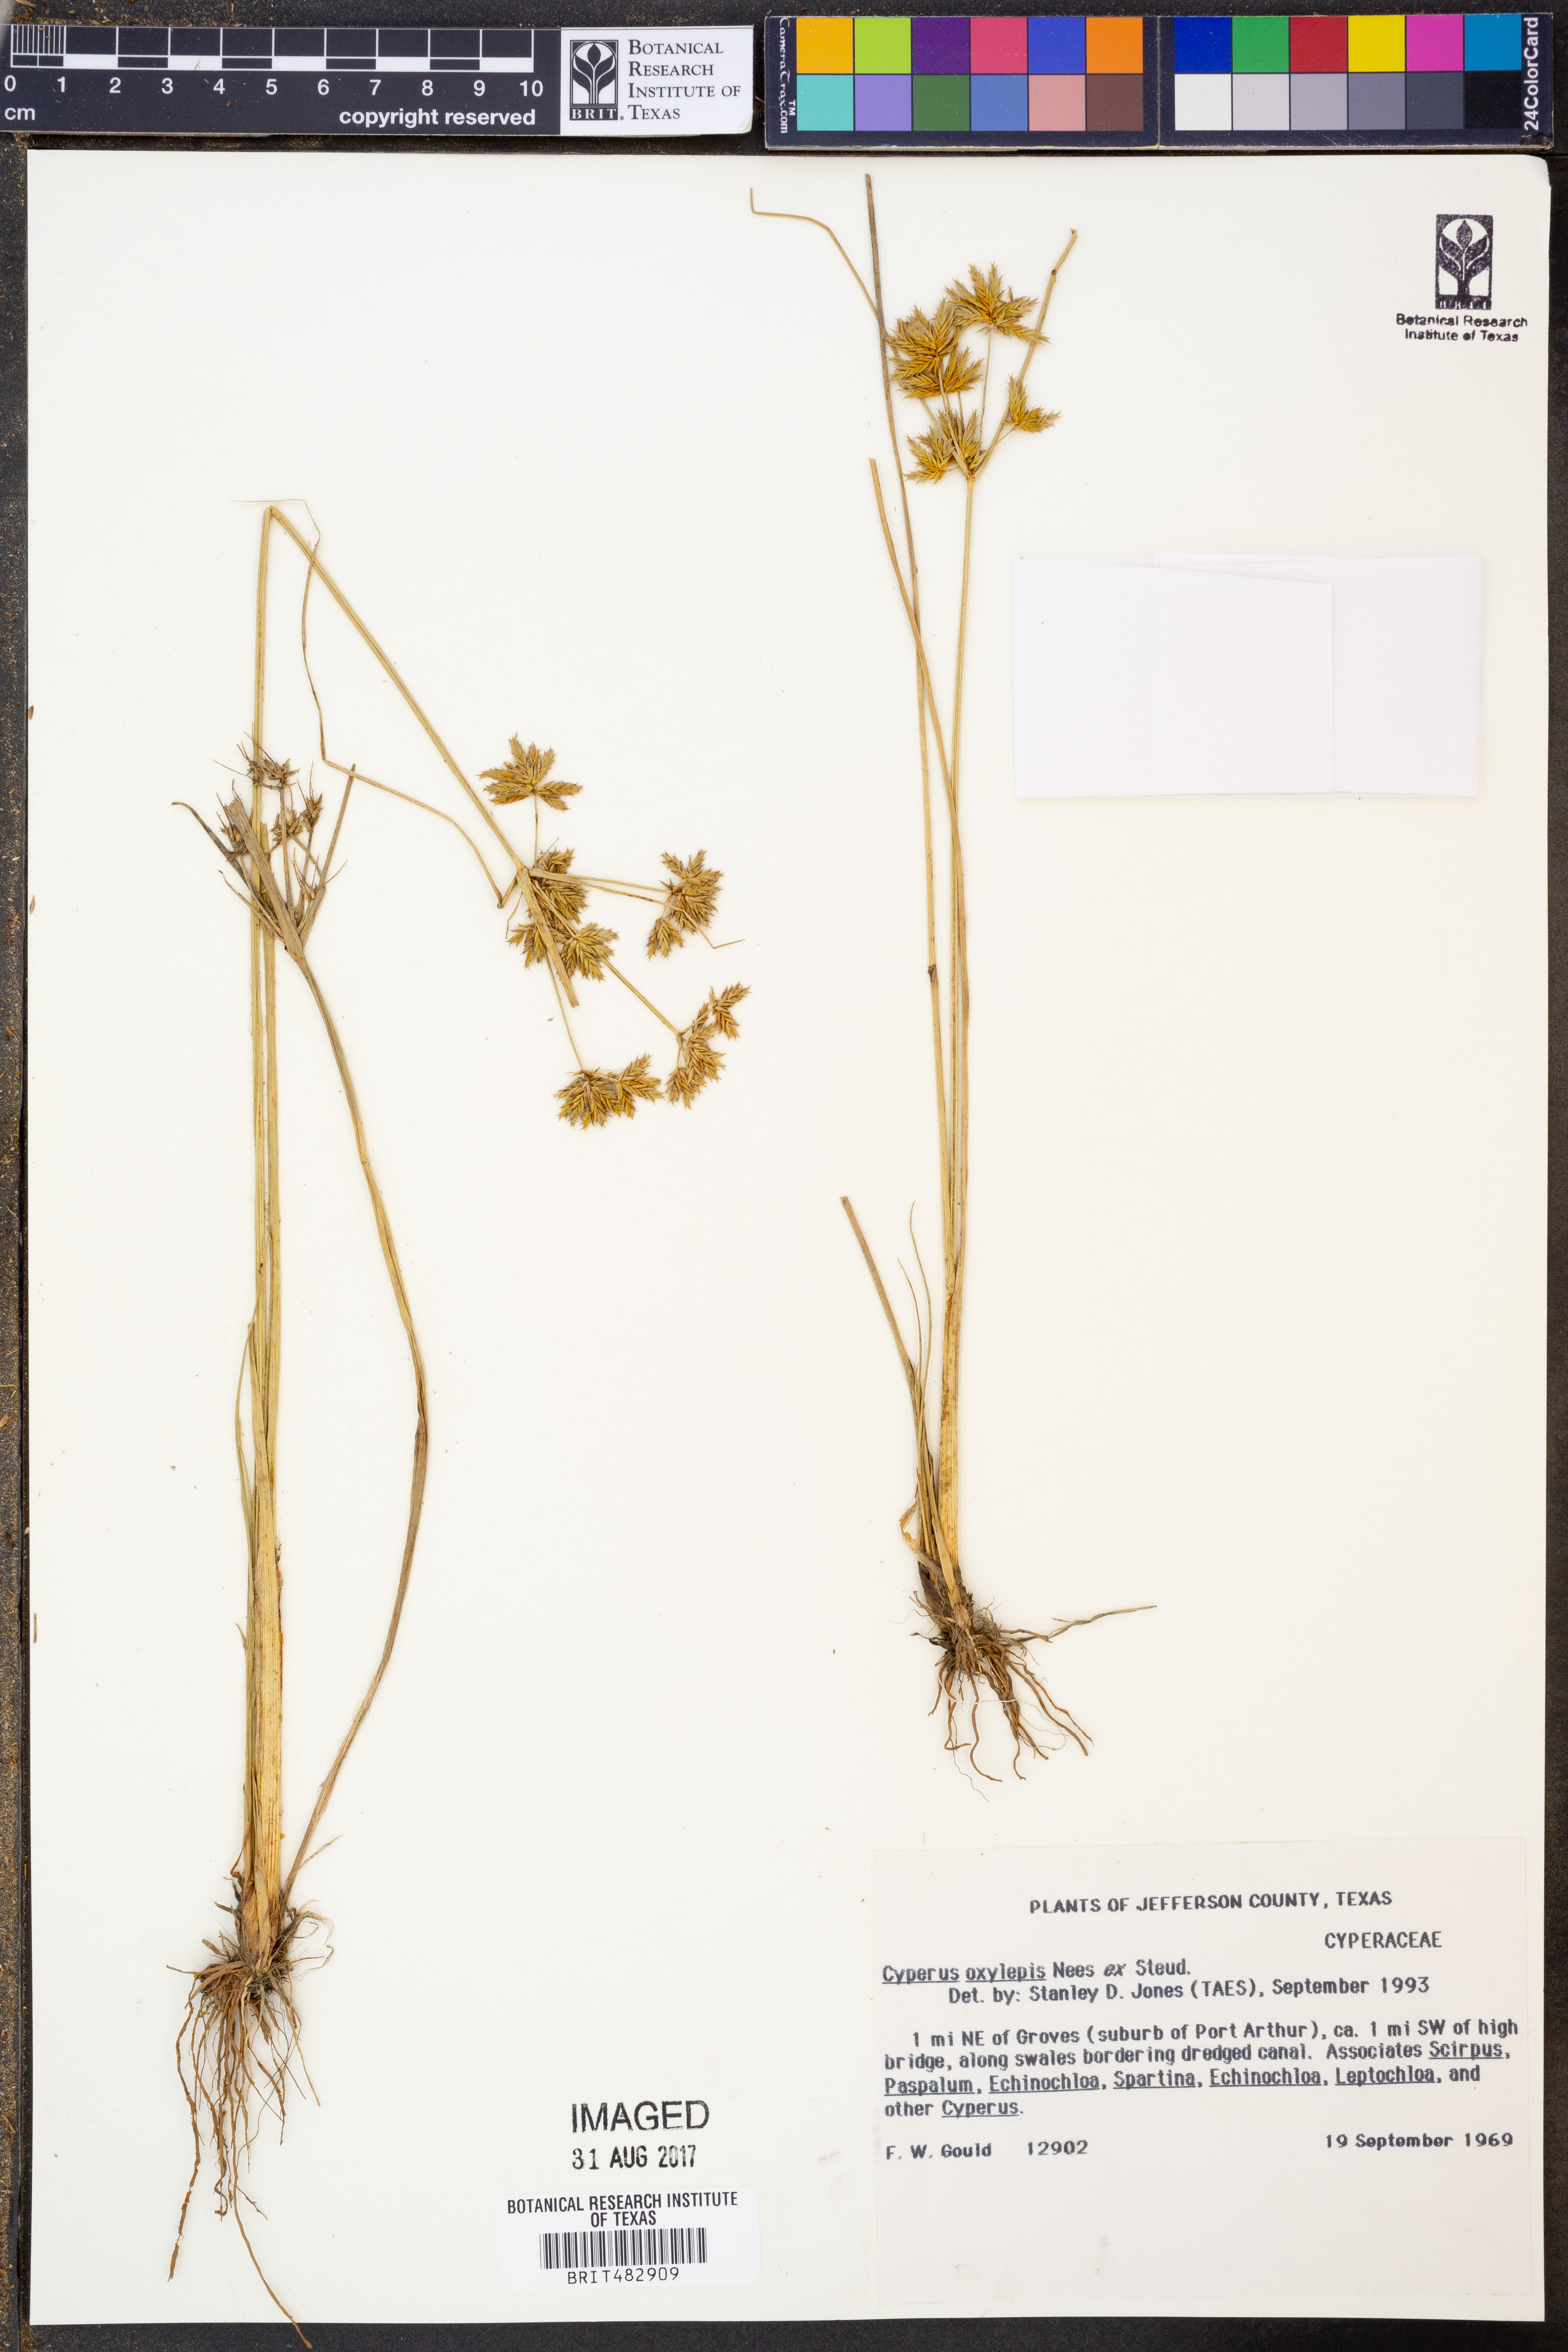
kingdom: Plantae
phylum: Tracheophyta
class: Liliopsida
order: Poales
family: Cyperaceae
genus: Cyperus
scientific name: Cyperus oxylepis
